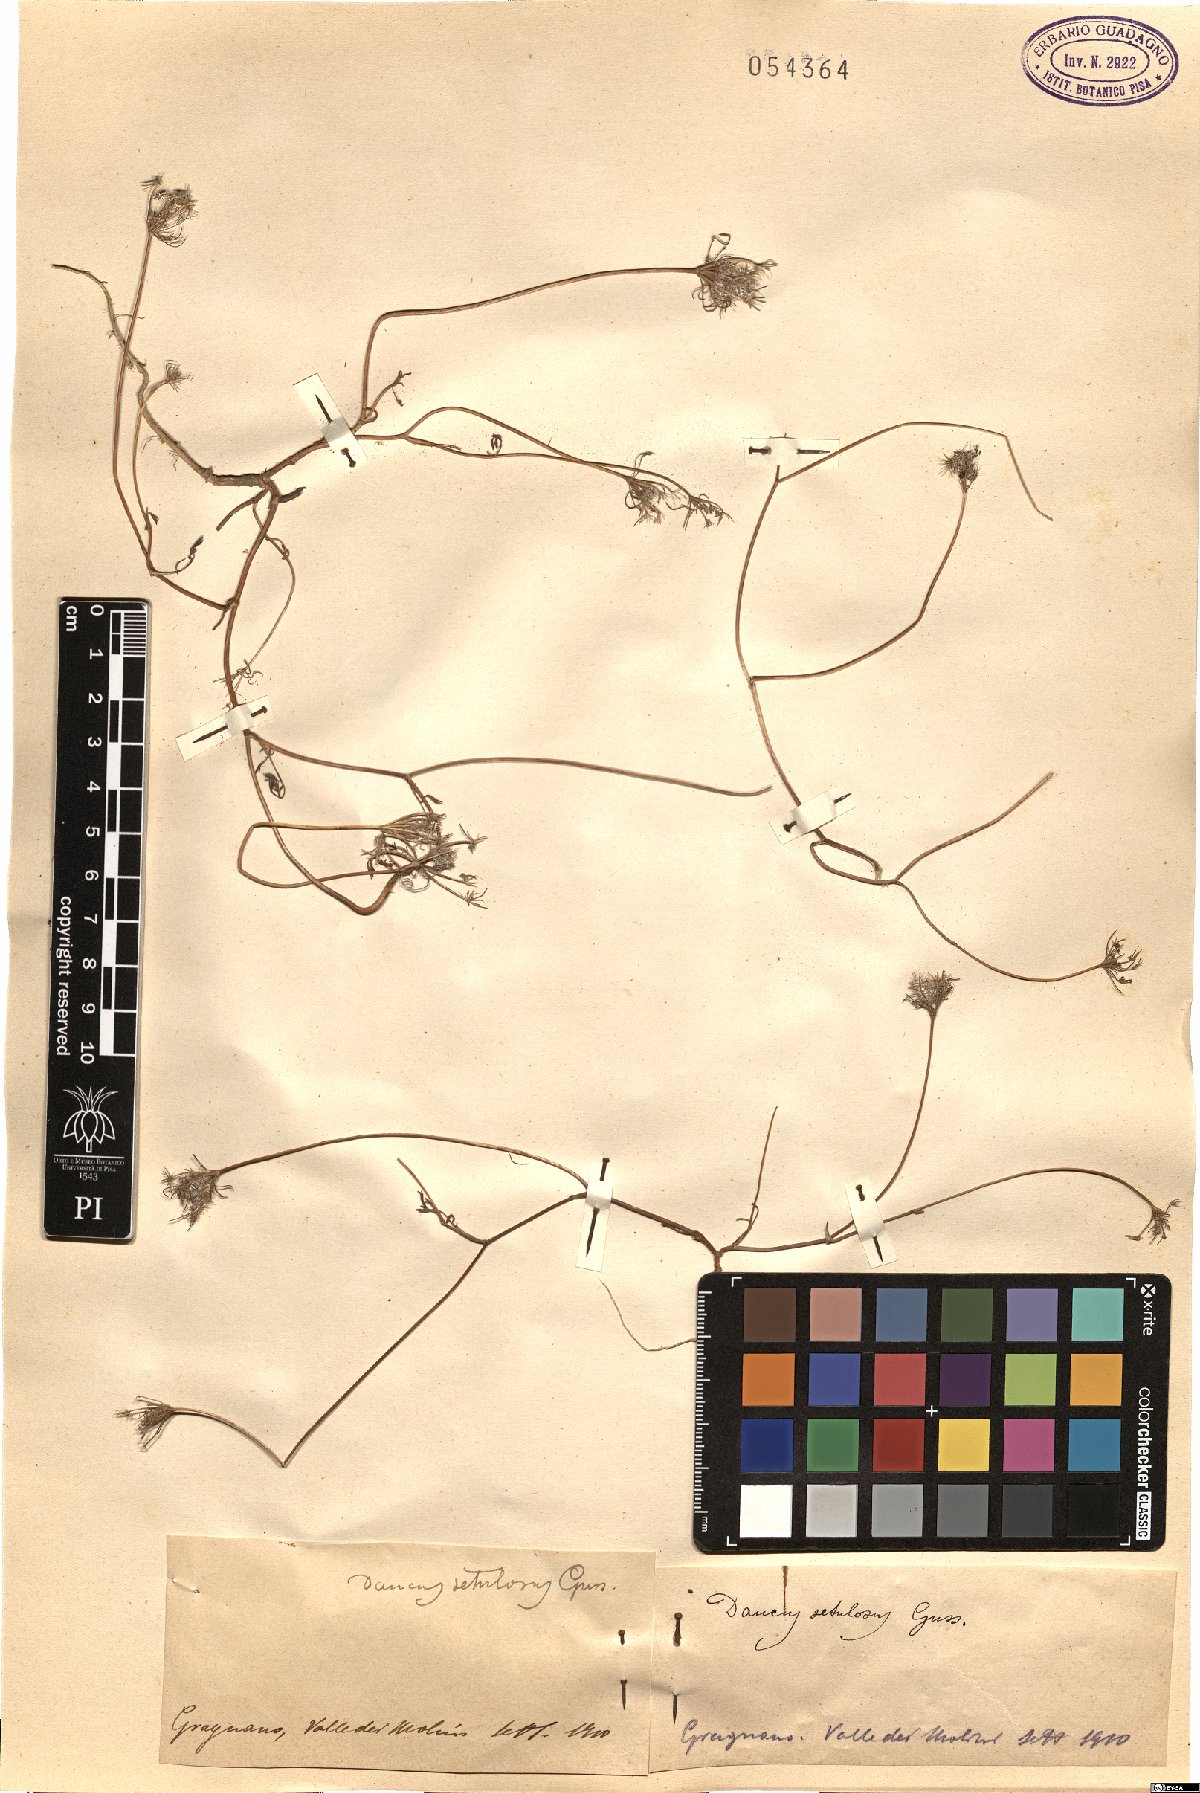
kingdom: Plantae
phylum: Tracheophyta
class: Magnoliopsida
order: Apiales
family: Apiaceae
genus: Daucus
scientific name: Daucus guttatus
